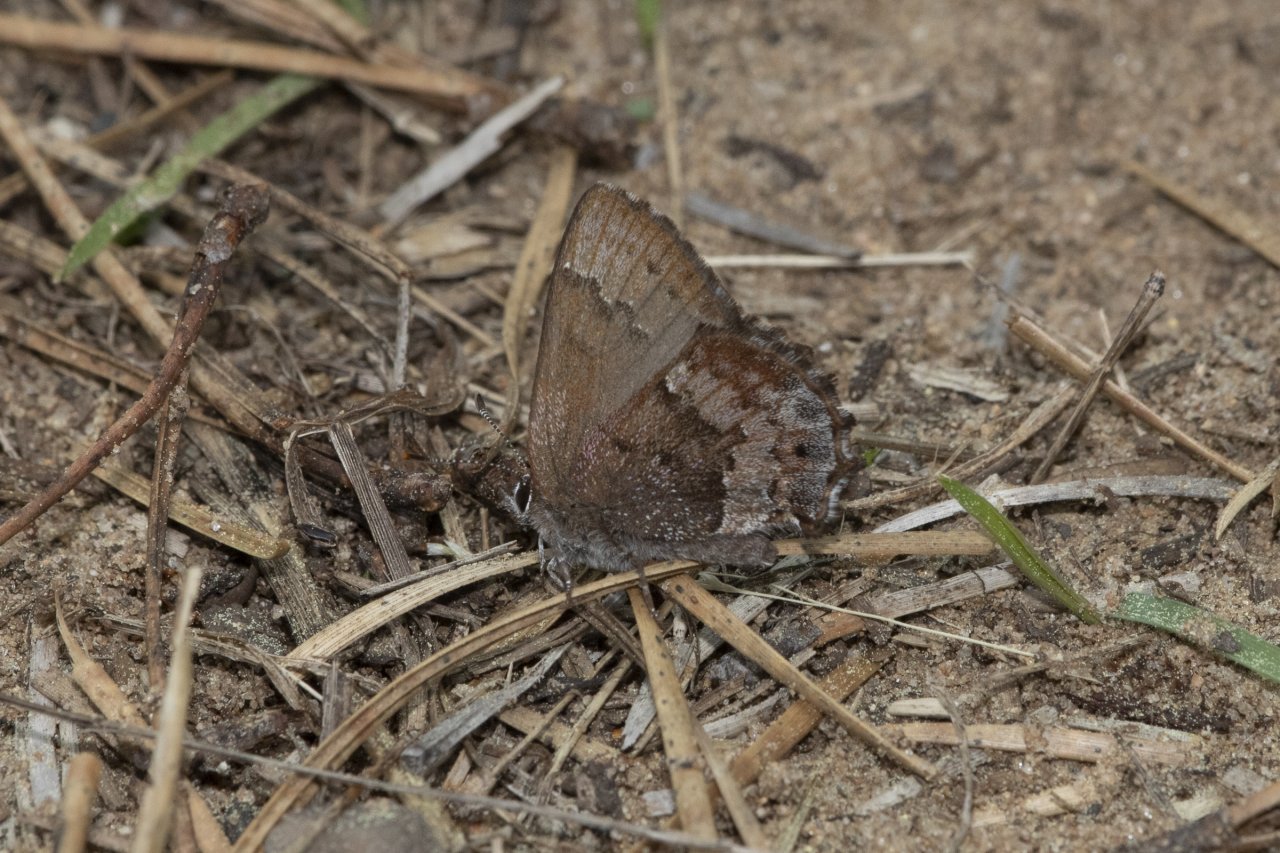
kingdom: Animalia
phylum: Arthropoda
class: Insecta
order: Lepidoptera
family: Lycaenidae
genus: Thecla
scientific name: Thecla irus
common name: Frosted Elfin
